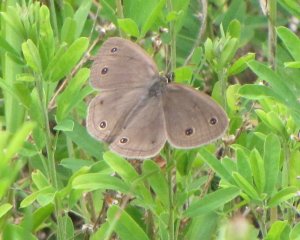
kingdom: Animalia
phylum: Arthropoda
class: Insecta
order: Lepidoptera
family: Nymphalidae
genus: Euptychia
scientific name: Euptychia cymela
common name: Little Wood Satyr
